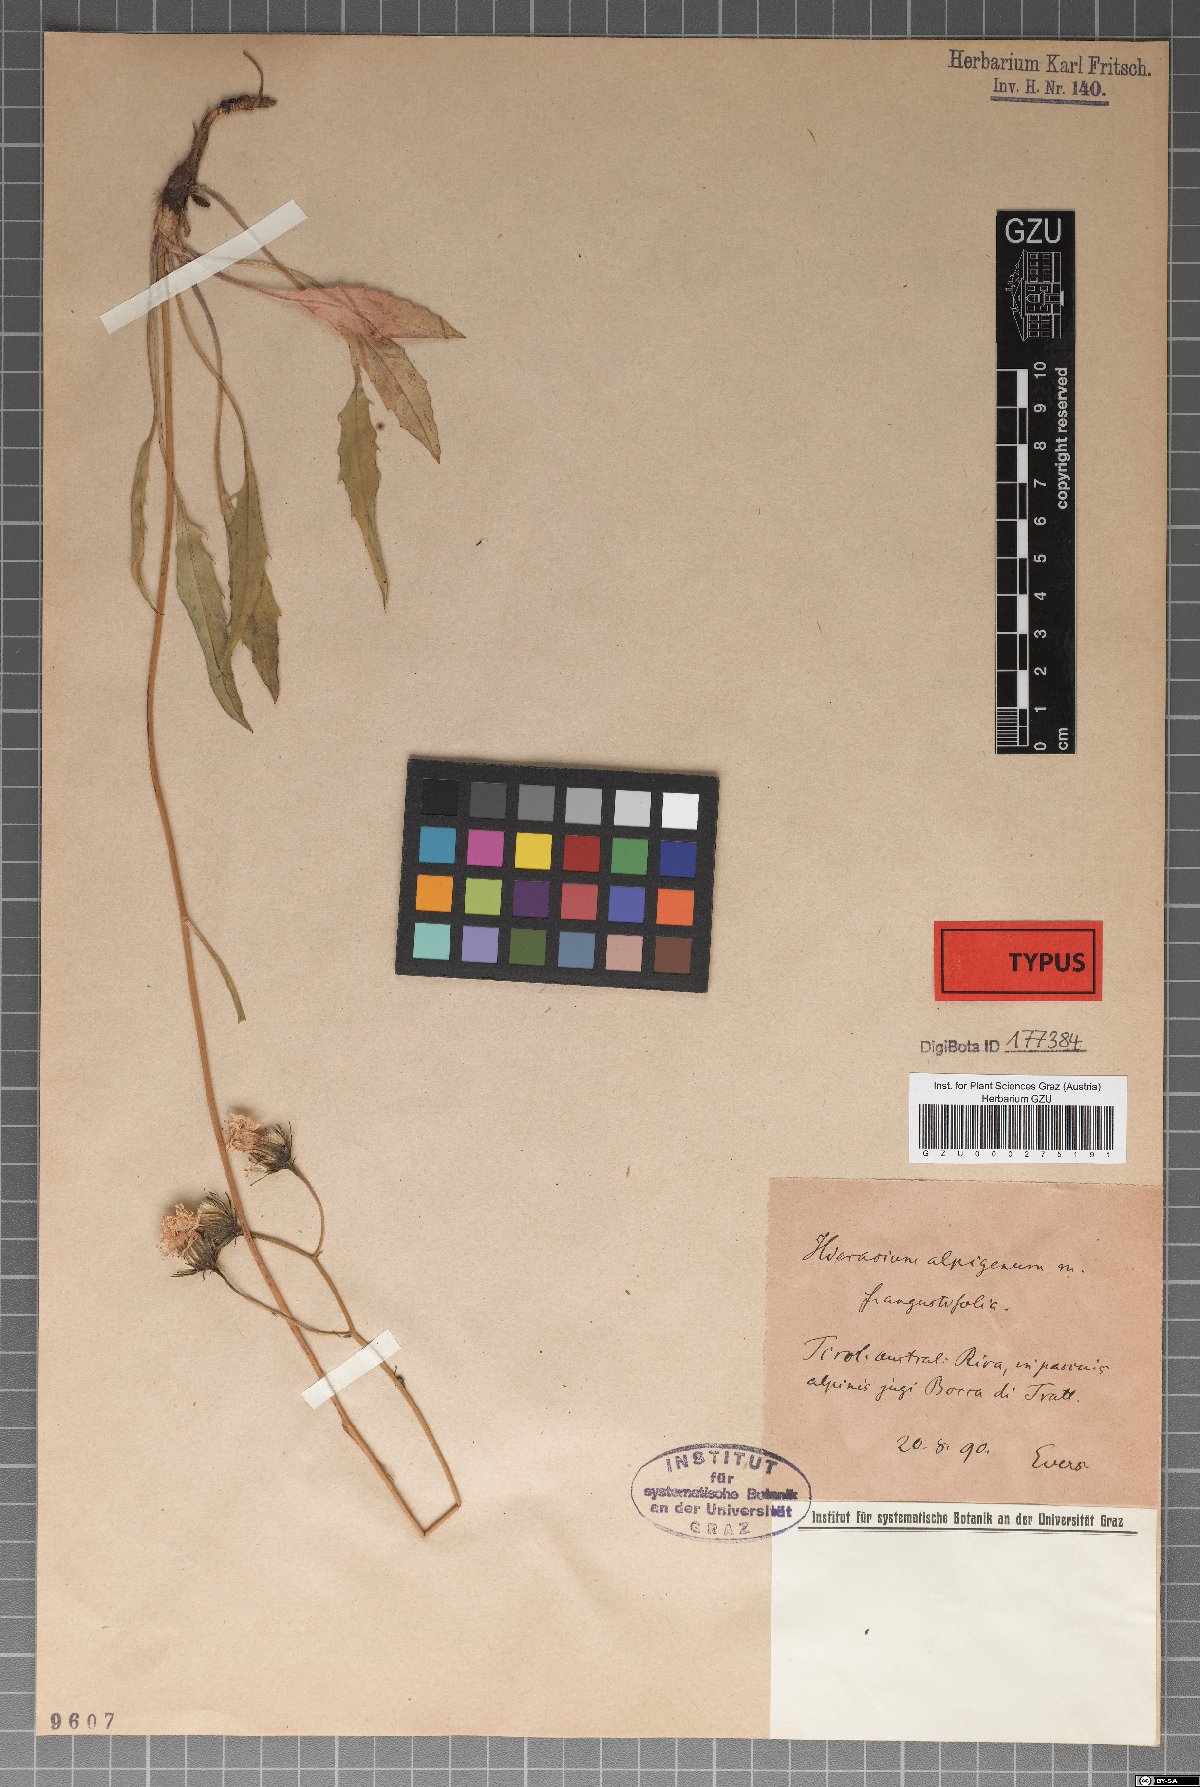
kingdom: Plantae
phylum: Tracheophyta
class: Magnoliopsida
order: Asterales
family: Asteraceae
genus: Hieracium
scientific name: Hieracium alpigena
